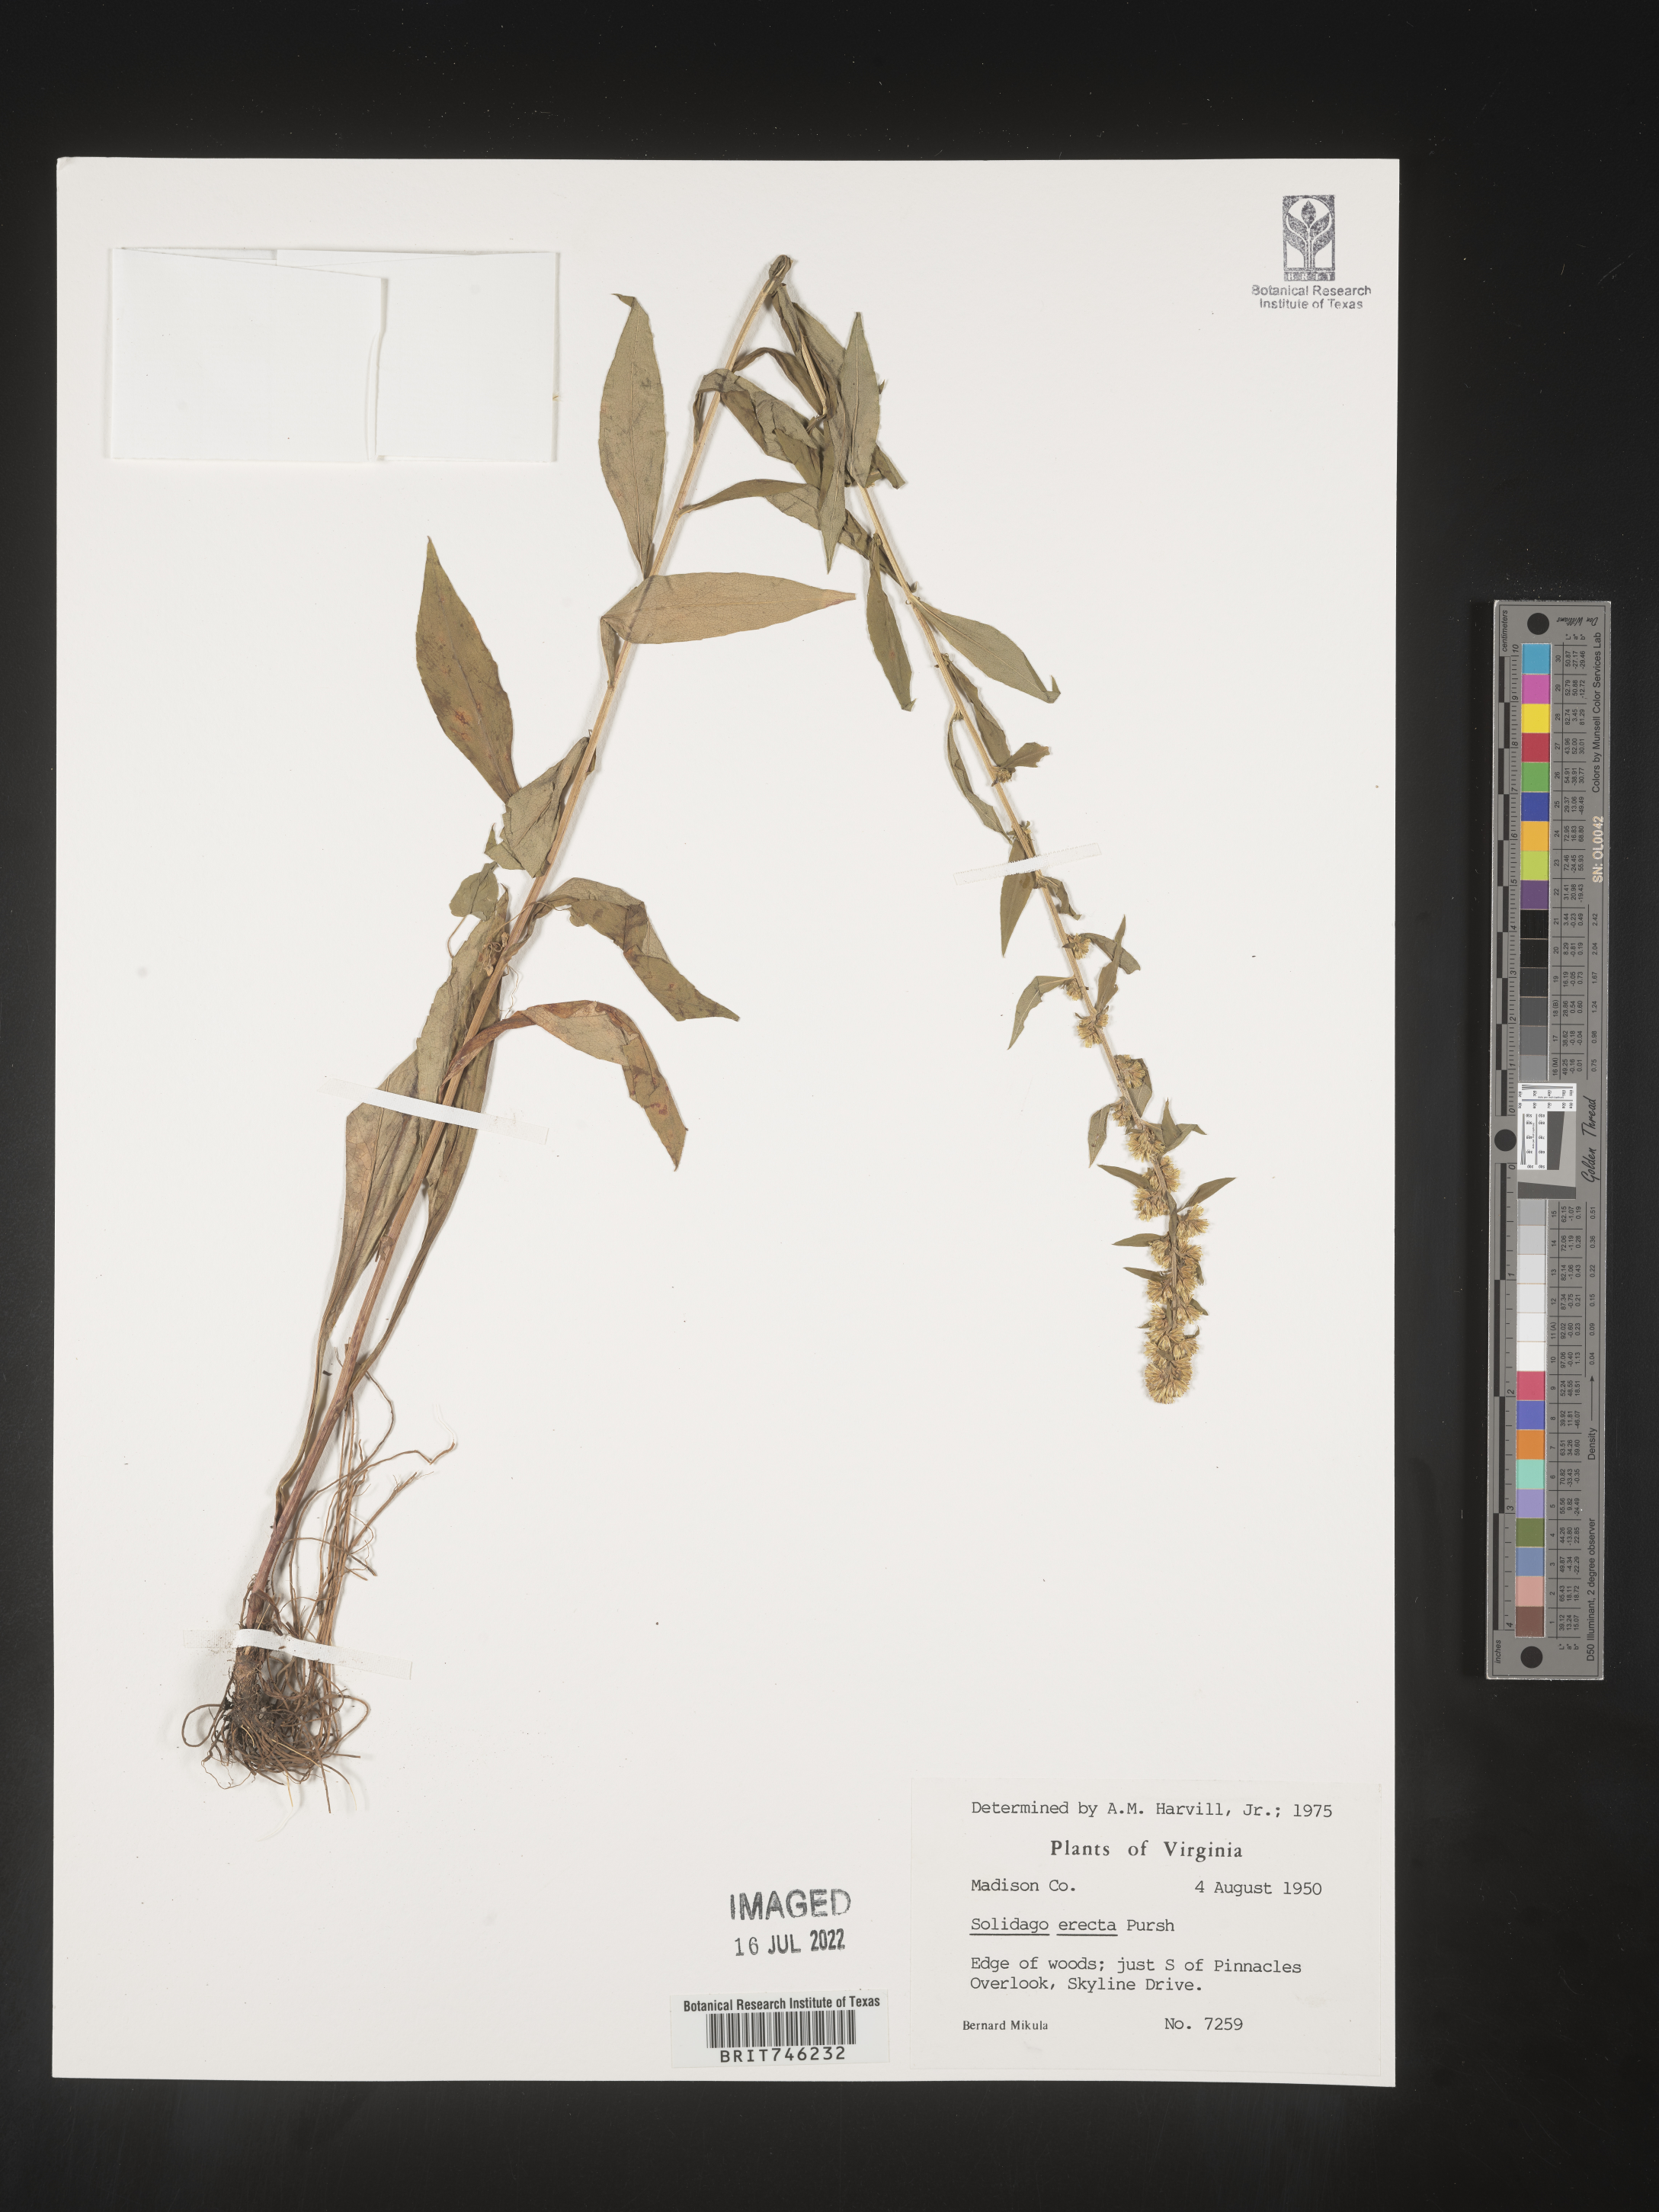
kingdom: Plantae
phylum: Tracheophyta
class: Magnoliopsida
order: Asterales
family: Asteraceae
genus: Solidago
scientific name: Solidago erecta
